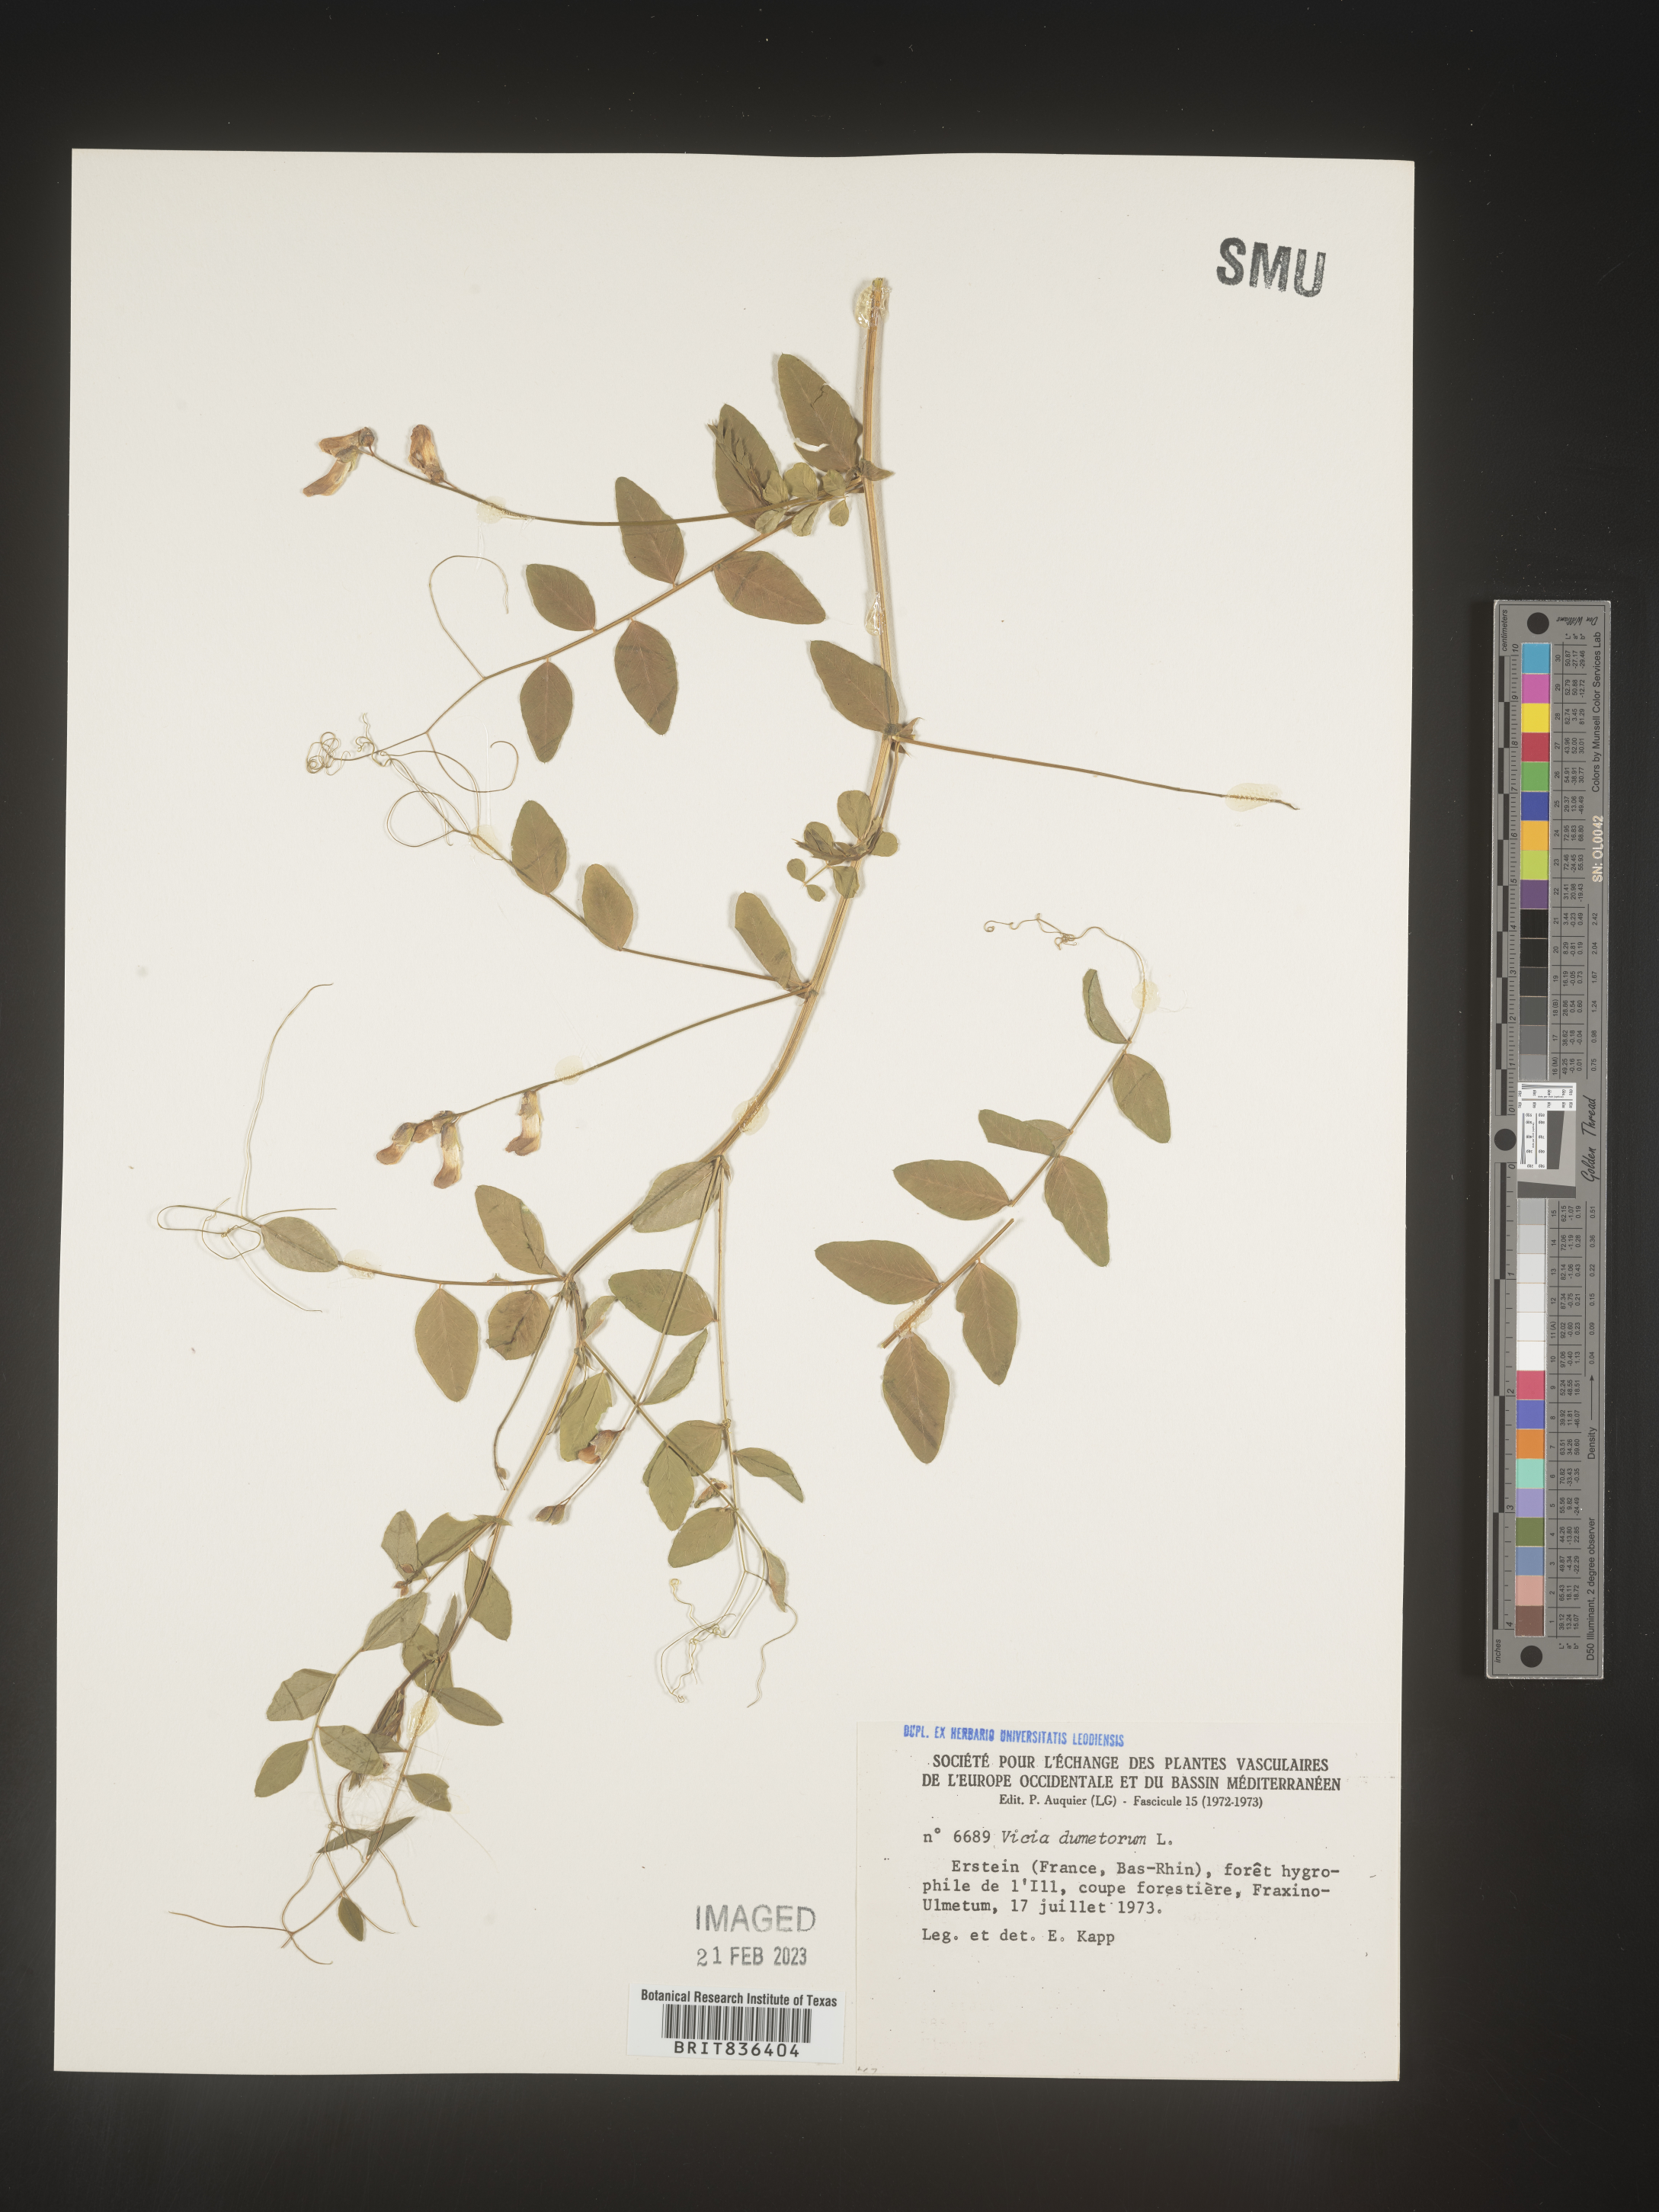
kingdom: Plantae
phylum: Tracheophyta
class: Magnoliopsida
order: Fabales
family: Fabaceae
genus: Vicia
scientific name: Vicia
